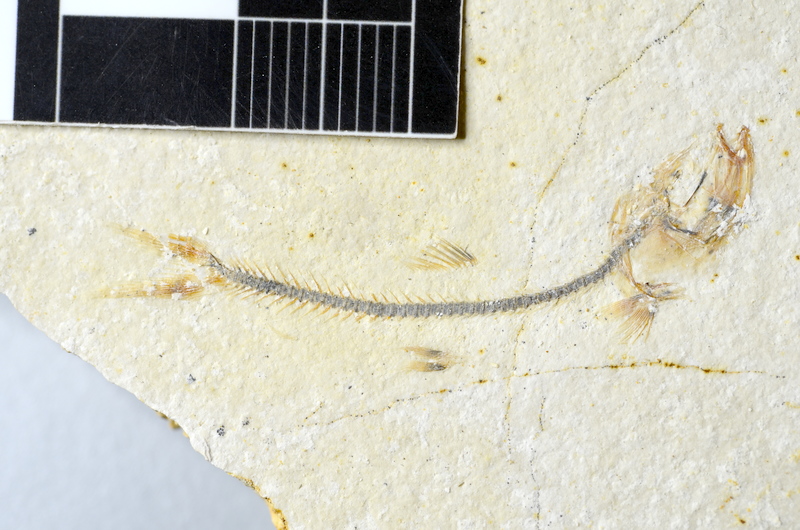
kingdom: Animalia
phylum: Chordata
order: Salmoniformes
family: Orthogonikleithridae
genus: Orthogonikleithrus
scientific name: Orthogonikleithrus hoelli
